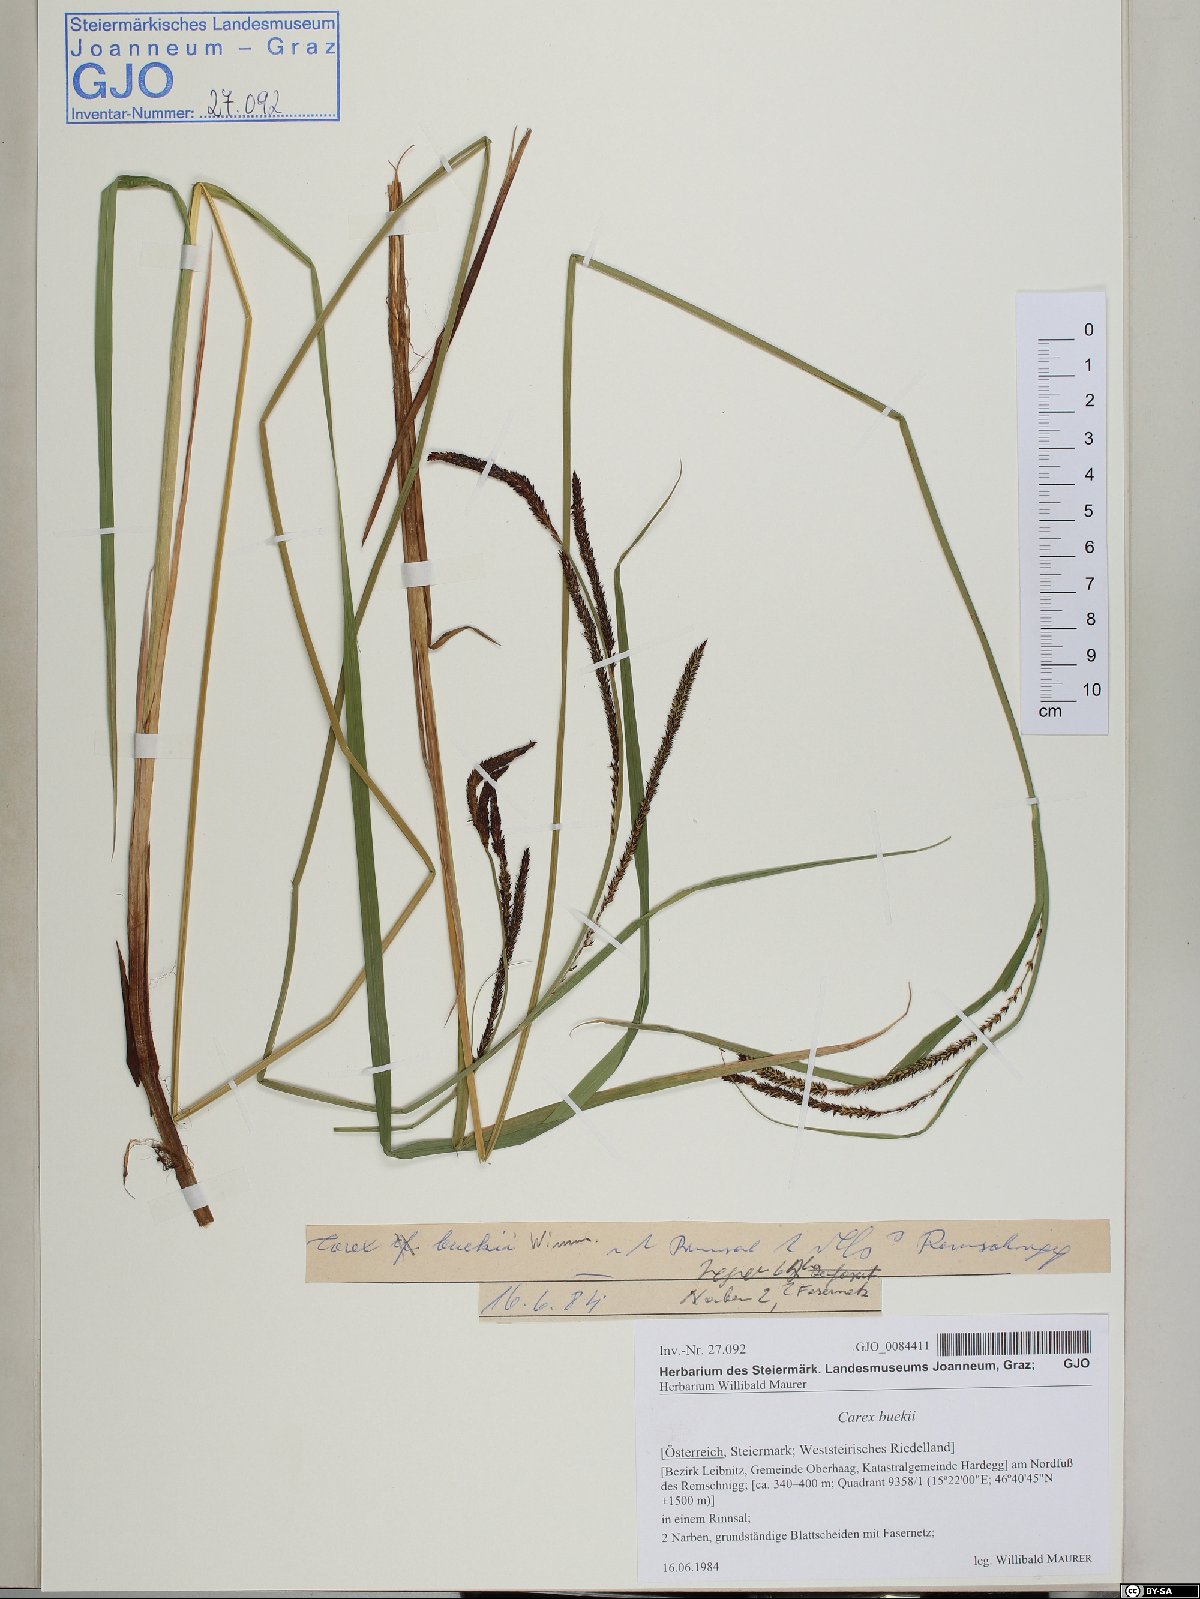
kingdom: Plantae
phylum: Tracheophyta
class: Liliopsida
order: Poales
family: Cyperaceae
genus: Carex
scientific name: Carex buekii
